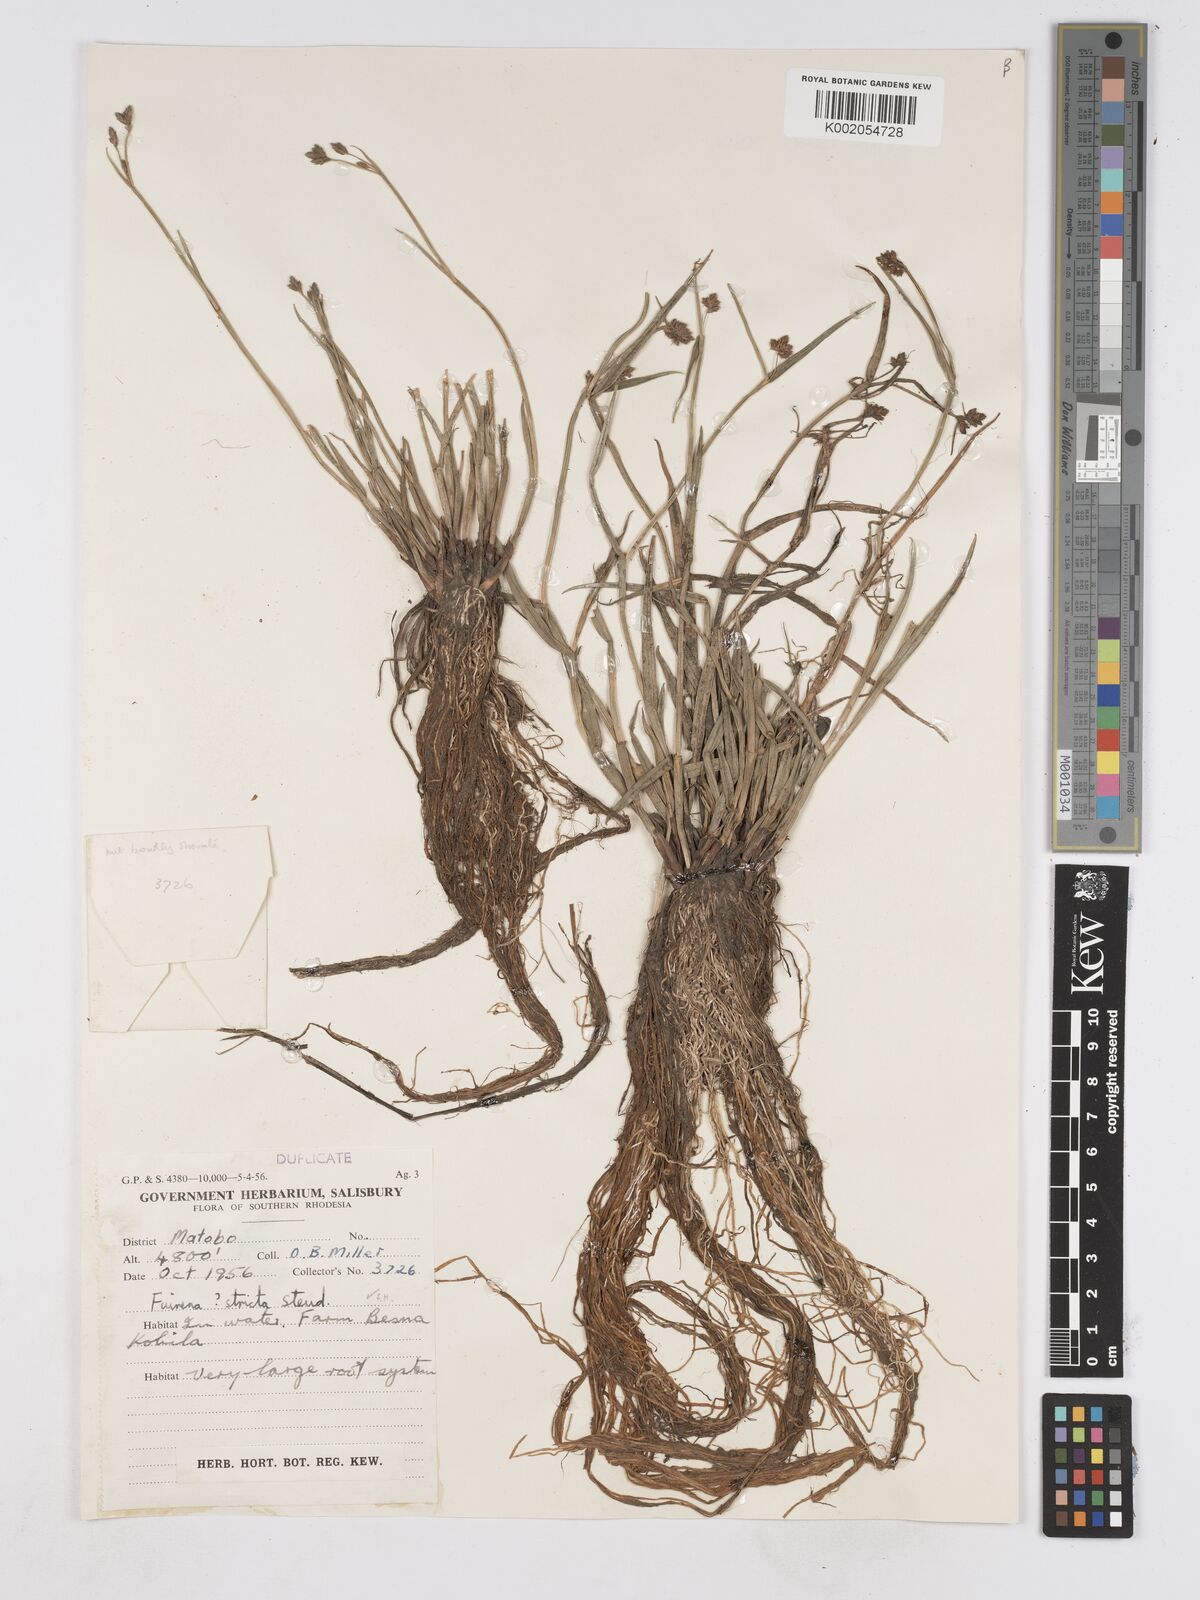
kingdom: Plantae
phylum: Tracheophyta
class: Liliopsida
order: Poales
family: Cyperaceae
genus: Fuirena
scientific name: Fuirena stricta
